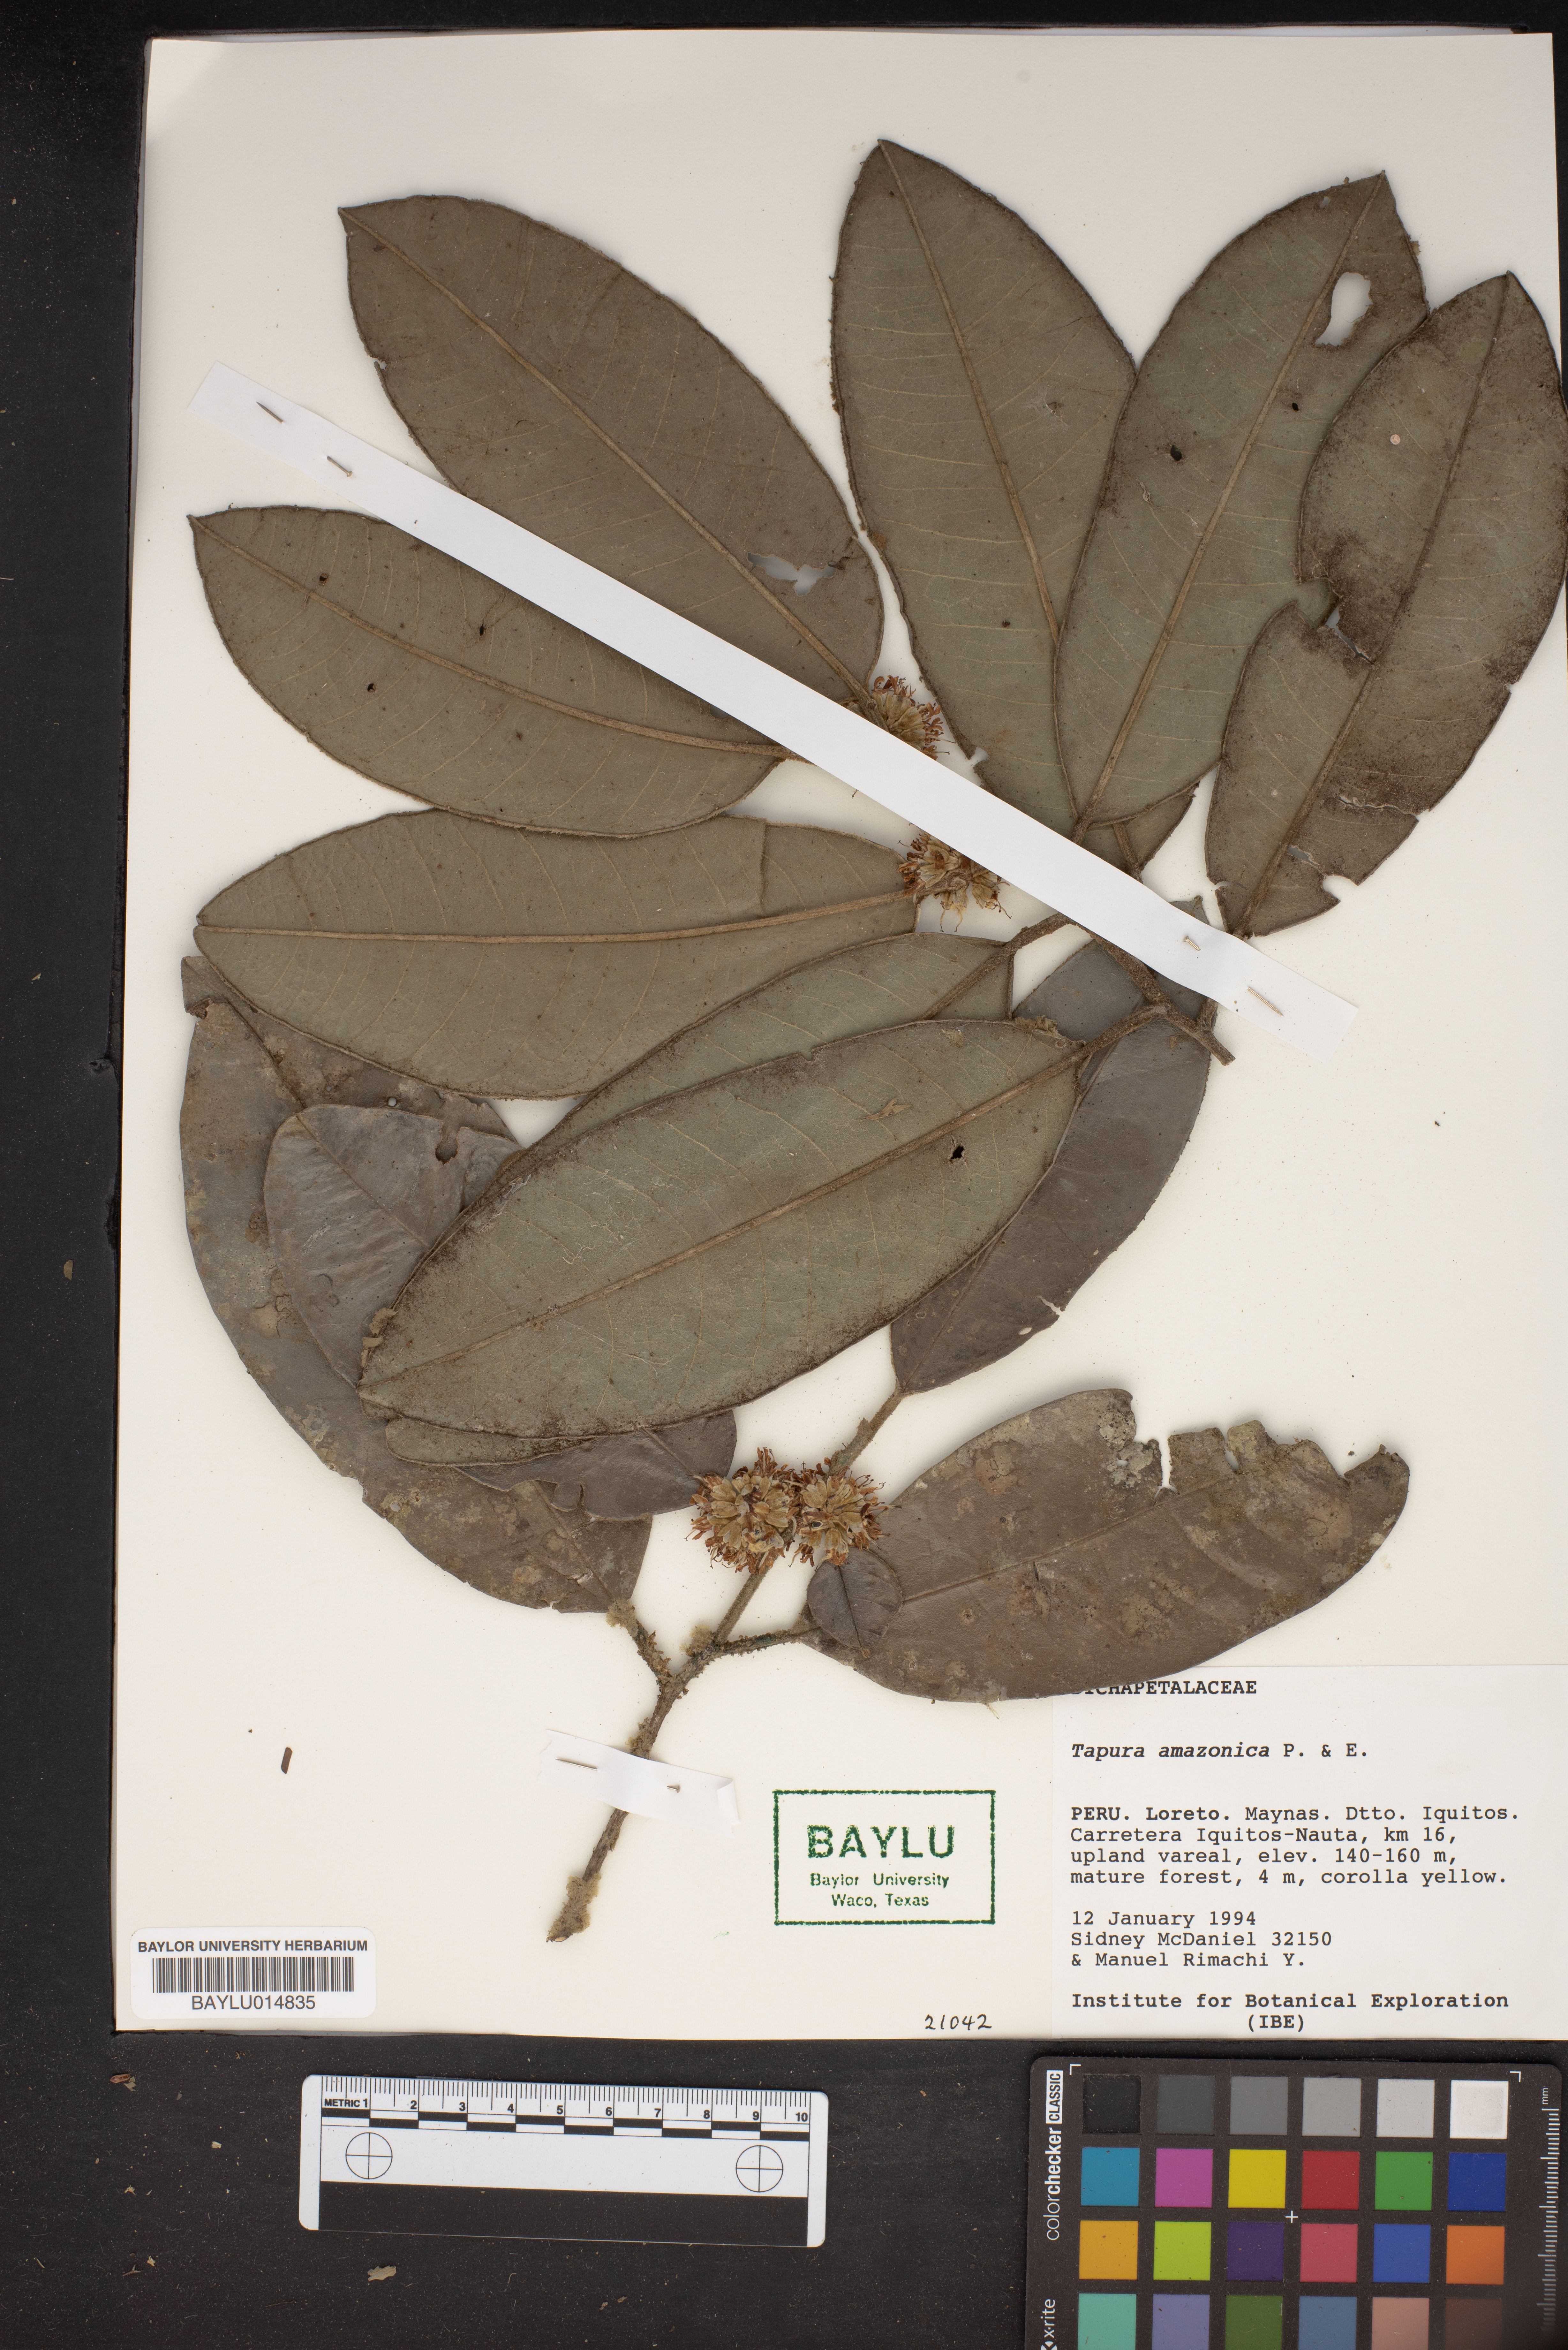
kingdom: Plantae
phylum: Tracheophyta
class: Magnoliopsida
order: Malpighiales
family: Dichapetalaceae
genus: Tapura
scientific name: Tapura amazonica
